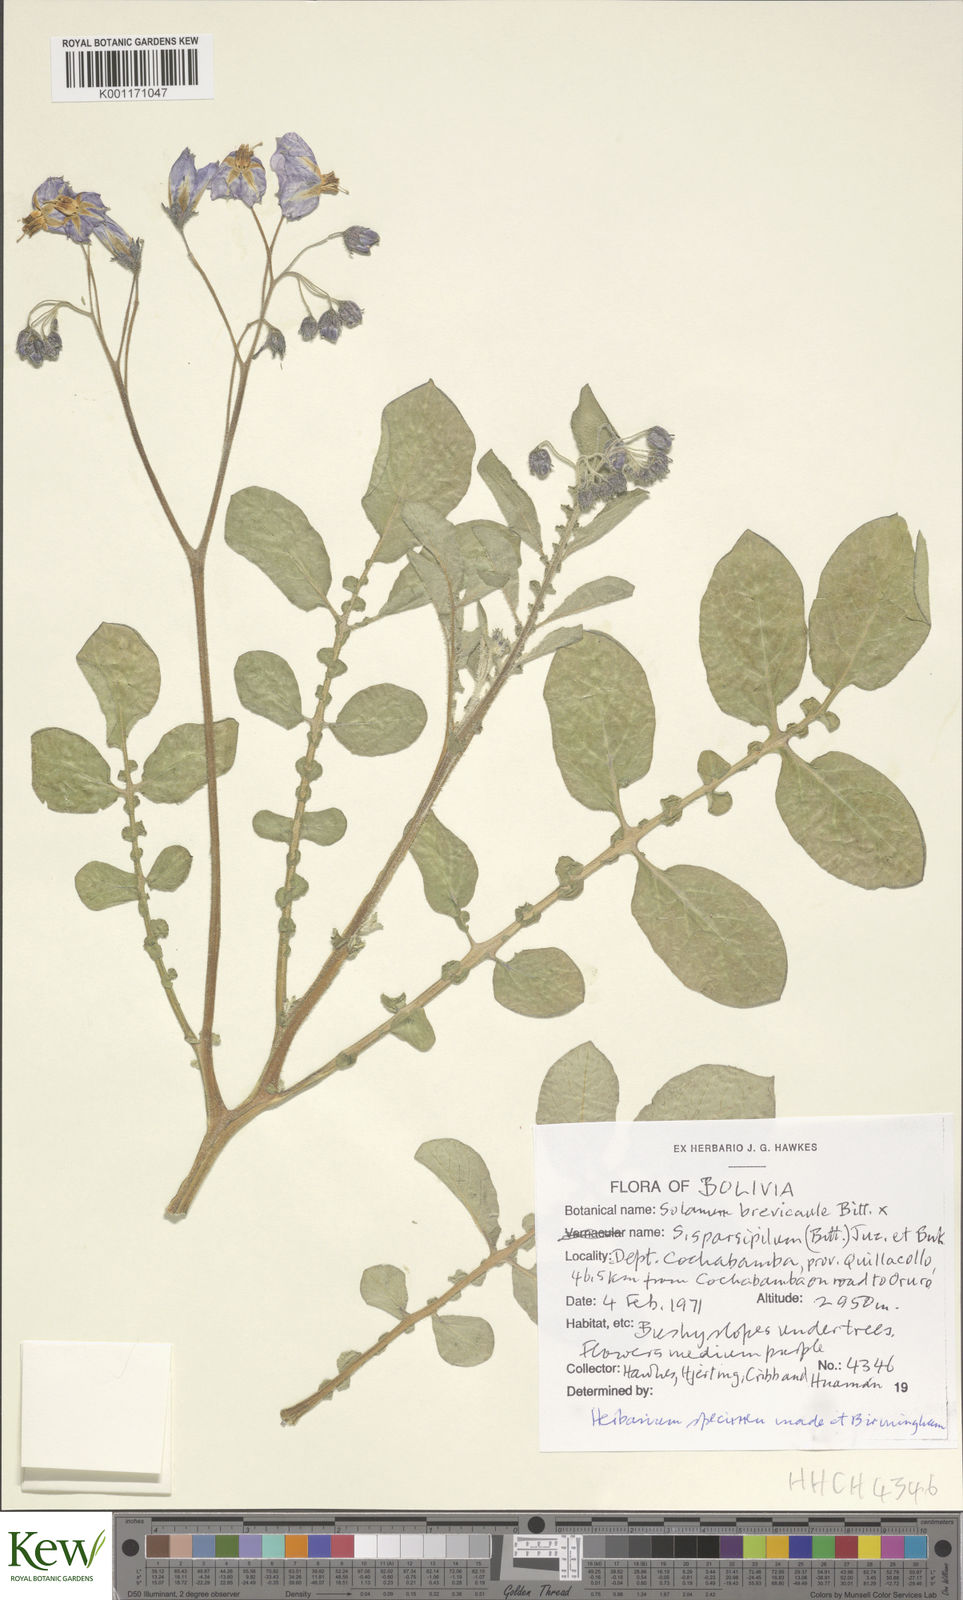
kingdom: Plantae
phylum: Tracheophyta
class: Magnoliopsida
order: Solanales
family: Solanaceae
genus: Solanum
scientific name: Solanum brevicaule
